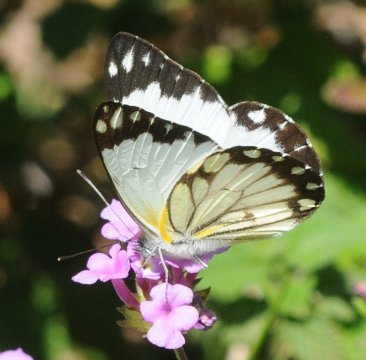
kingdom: Animalia
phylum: Arthropoda
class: Insecta
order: Lepidoptera
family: Pieridae
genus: Belenois
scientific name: Belenois creona
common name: African Caper
